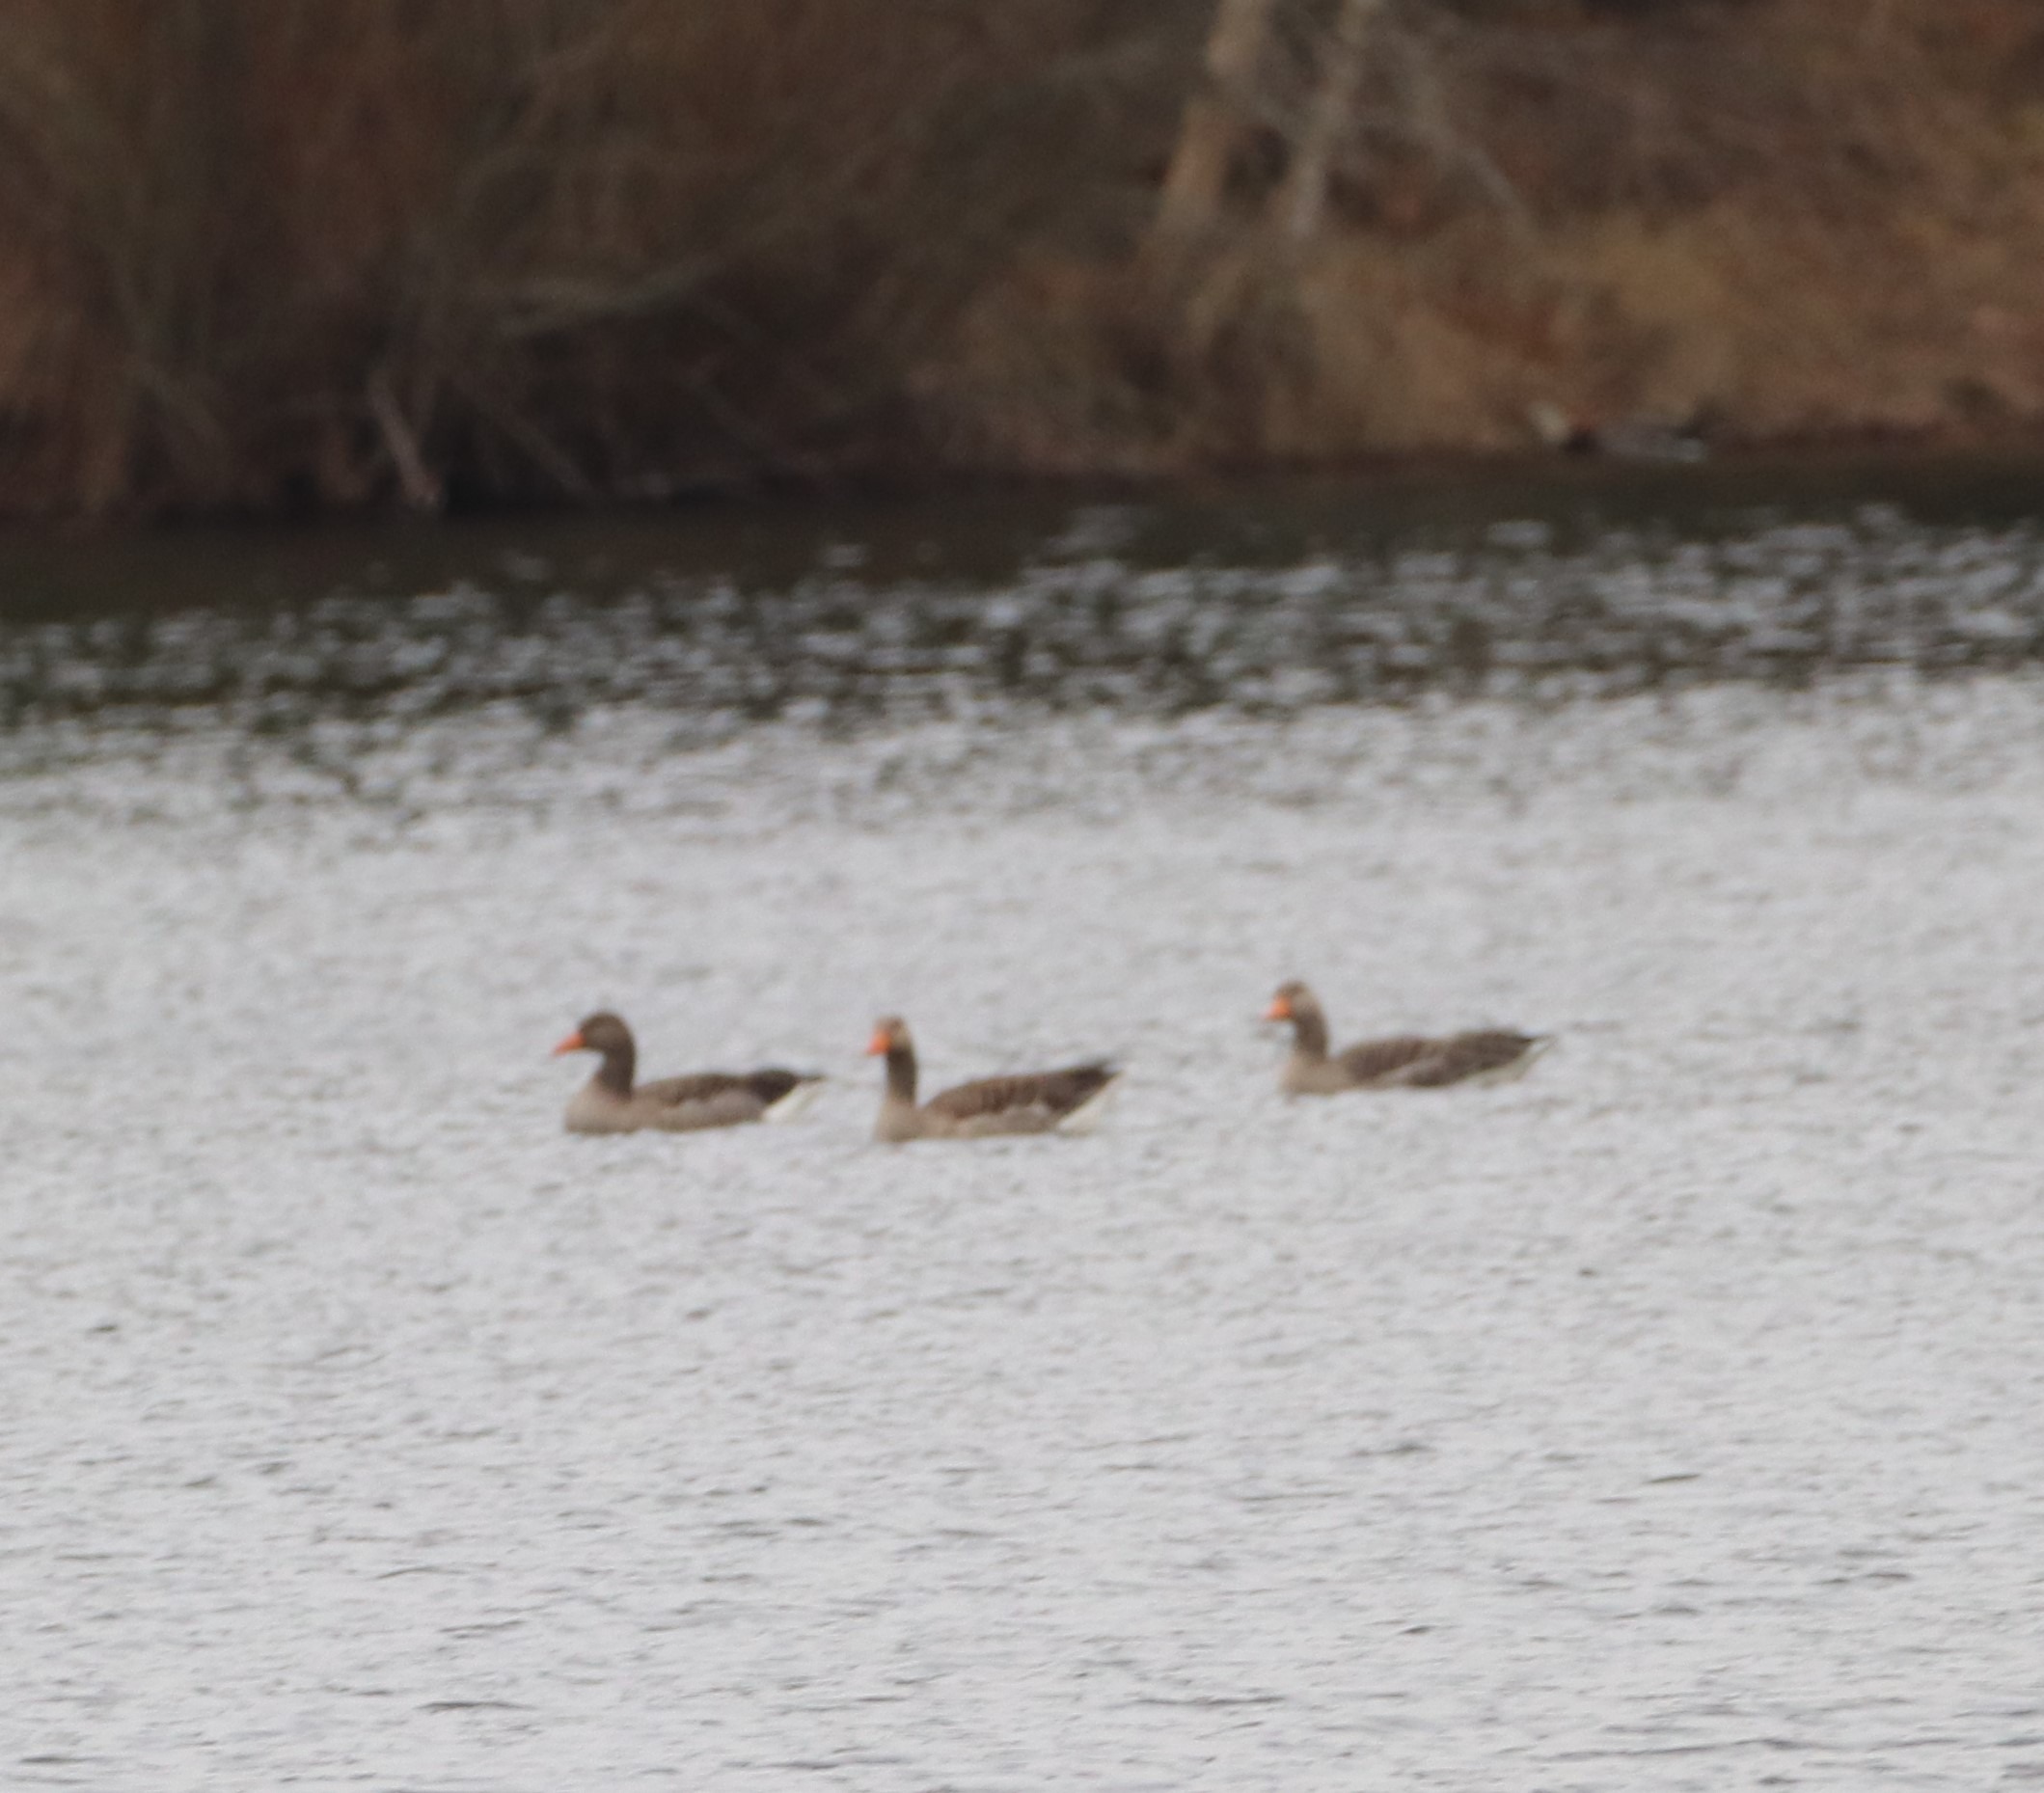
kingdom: Animalia
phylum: Chordata
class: Aves
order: Anseriformes
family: Anatidae
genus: Anser
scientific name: Anser anser
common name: Grågås
